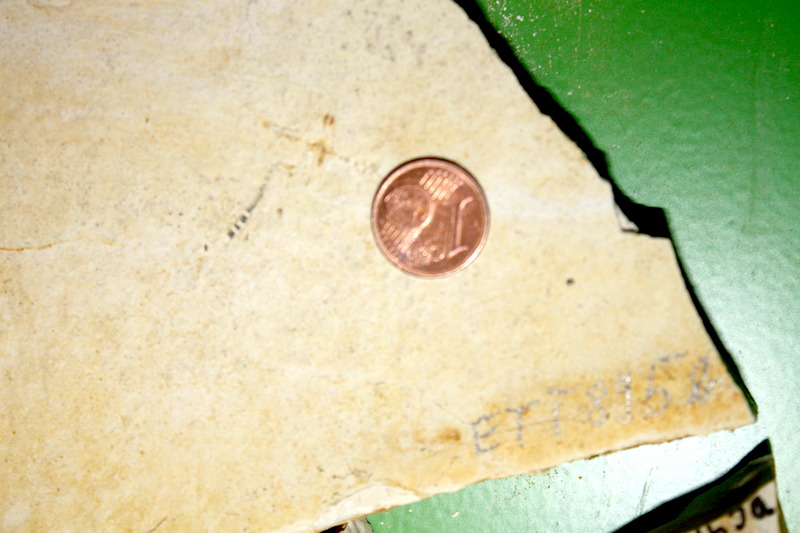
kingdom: Animalia
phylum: Chordata
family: Ascalaboidae
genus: Ebertichthys
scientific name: Ebertichthys ettlingensis
